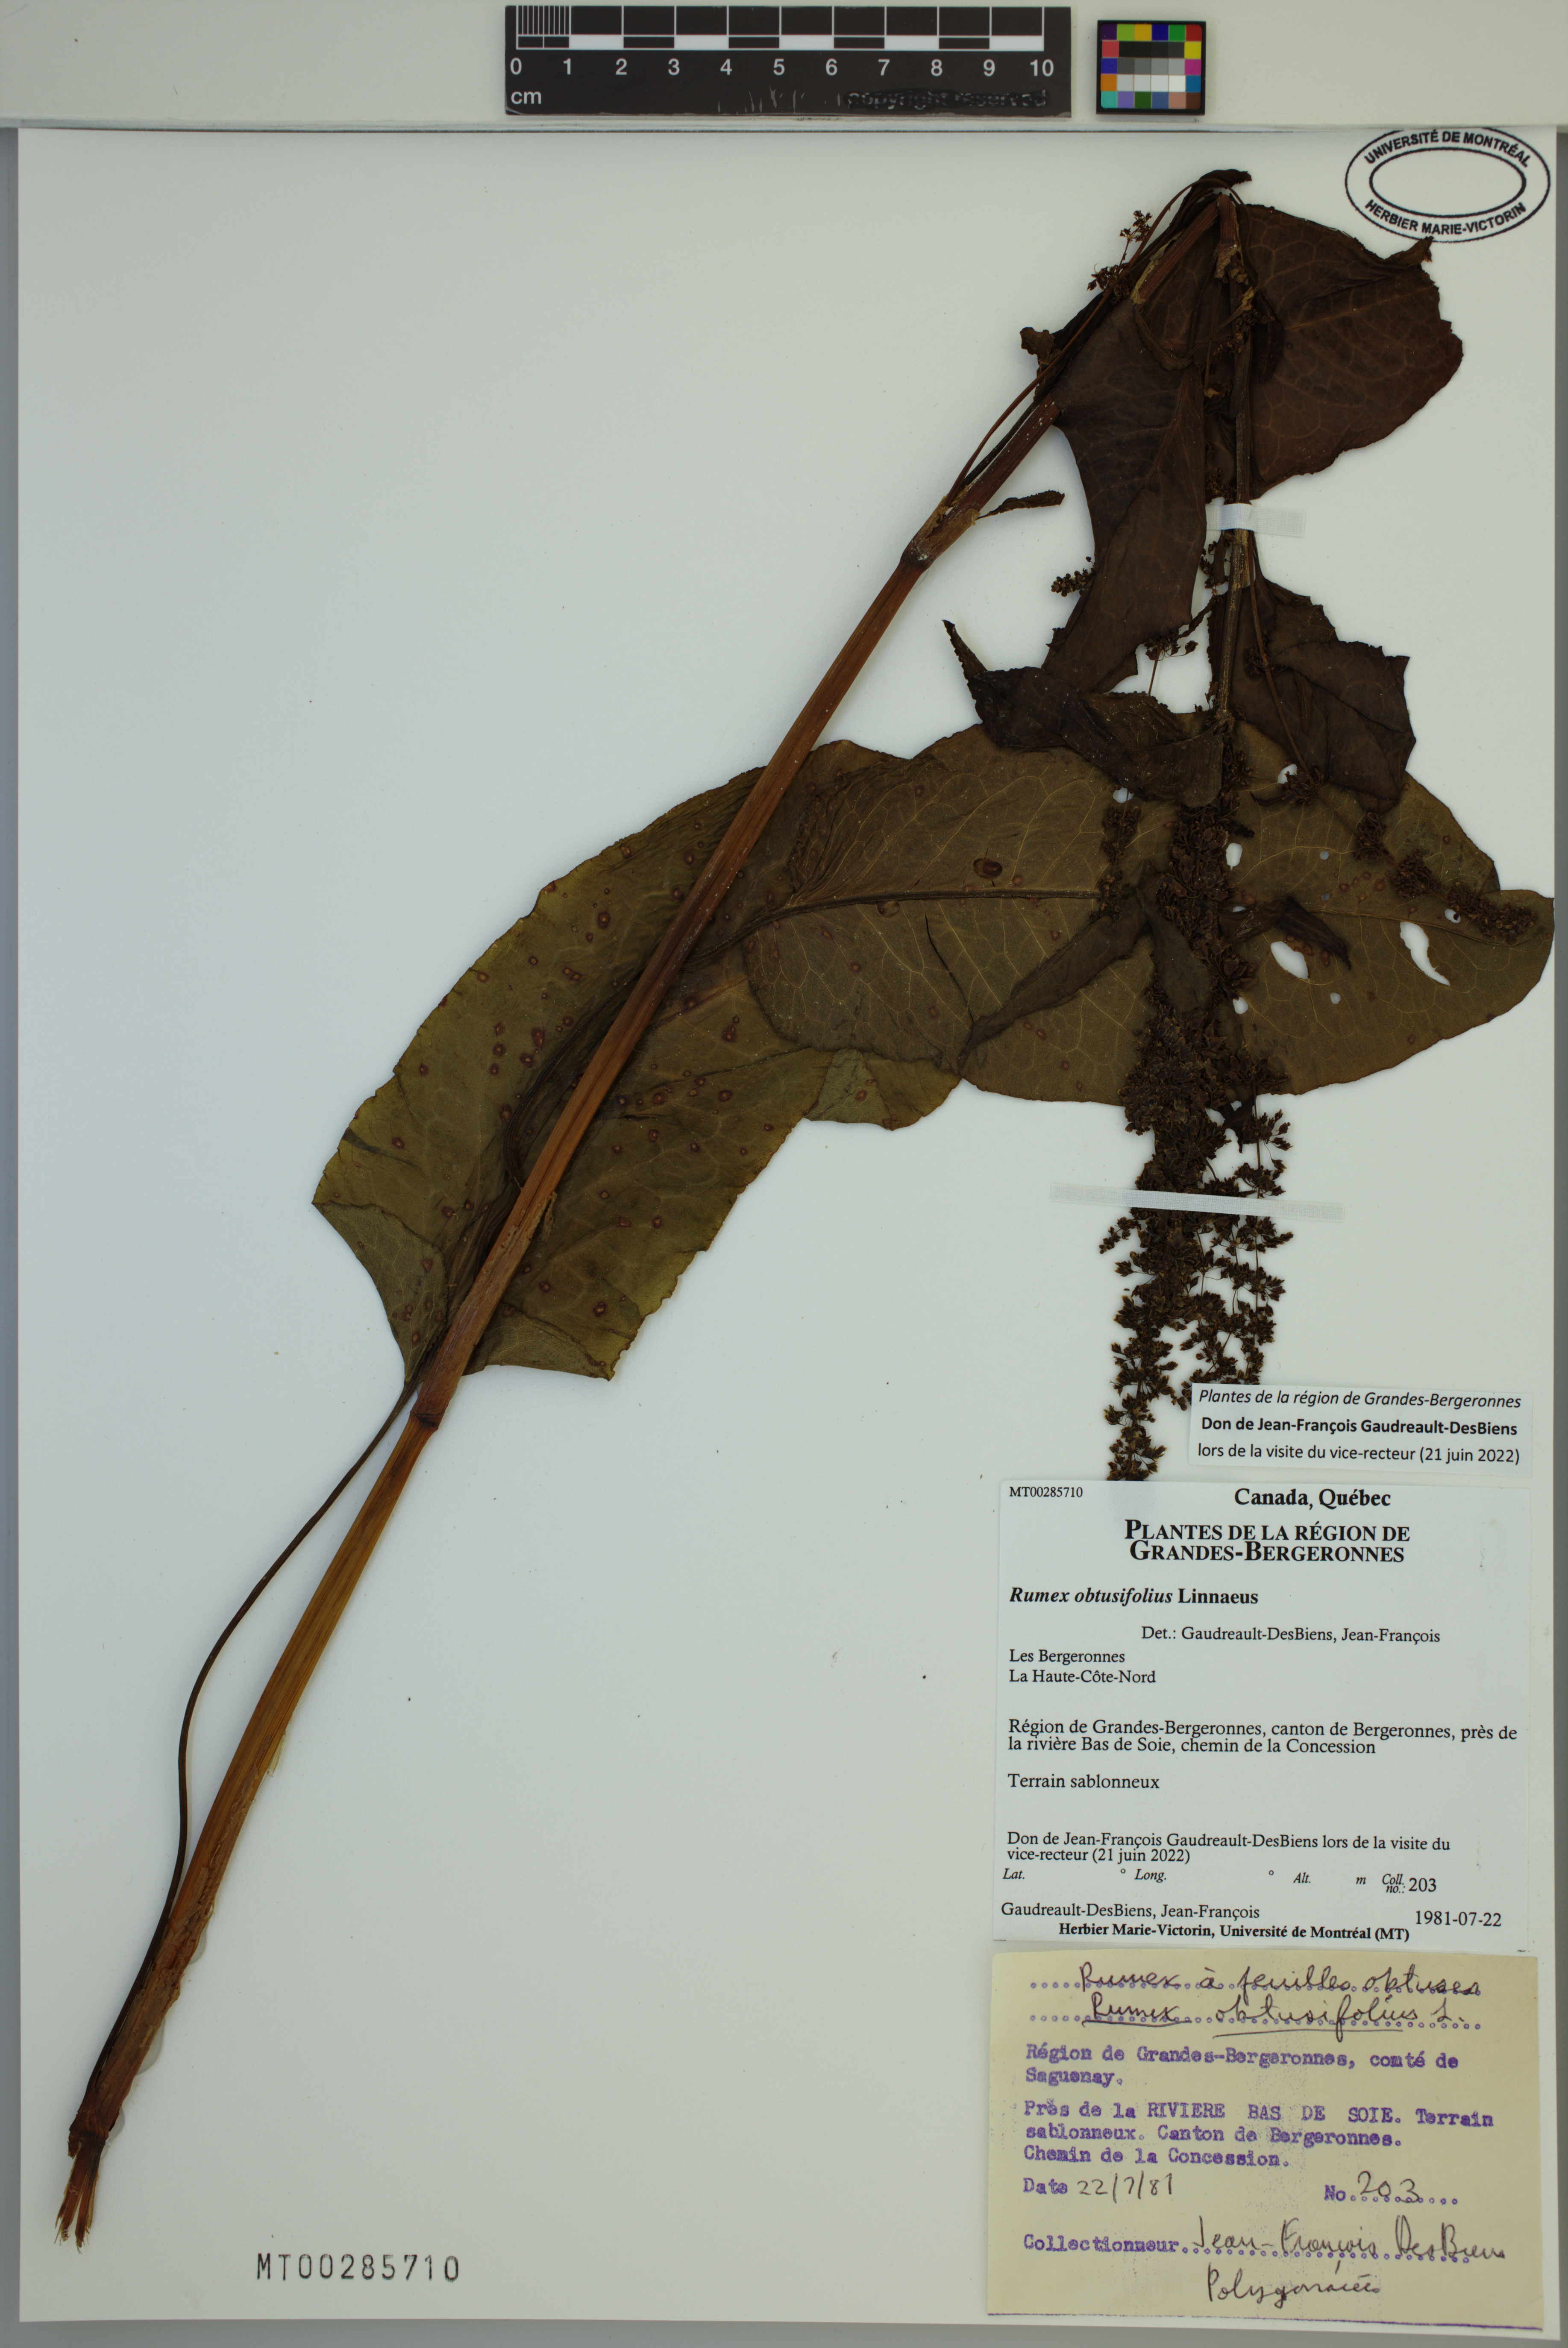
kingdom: Plantae
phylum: Tracheophyta
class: Magnoliopsida
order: Caryophyllales
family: Polygonaceae
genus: Rumex
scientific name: Rumex obtusifolius
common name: Bitter dock
